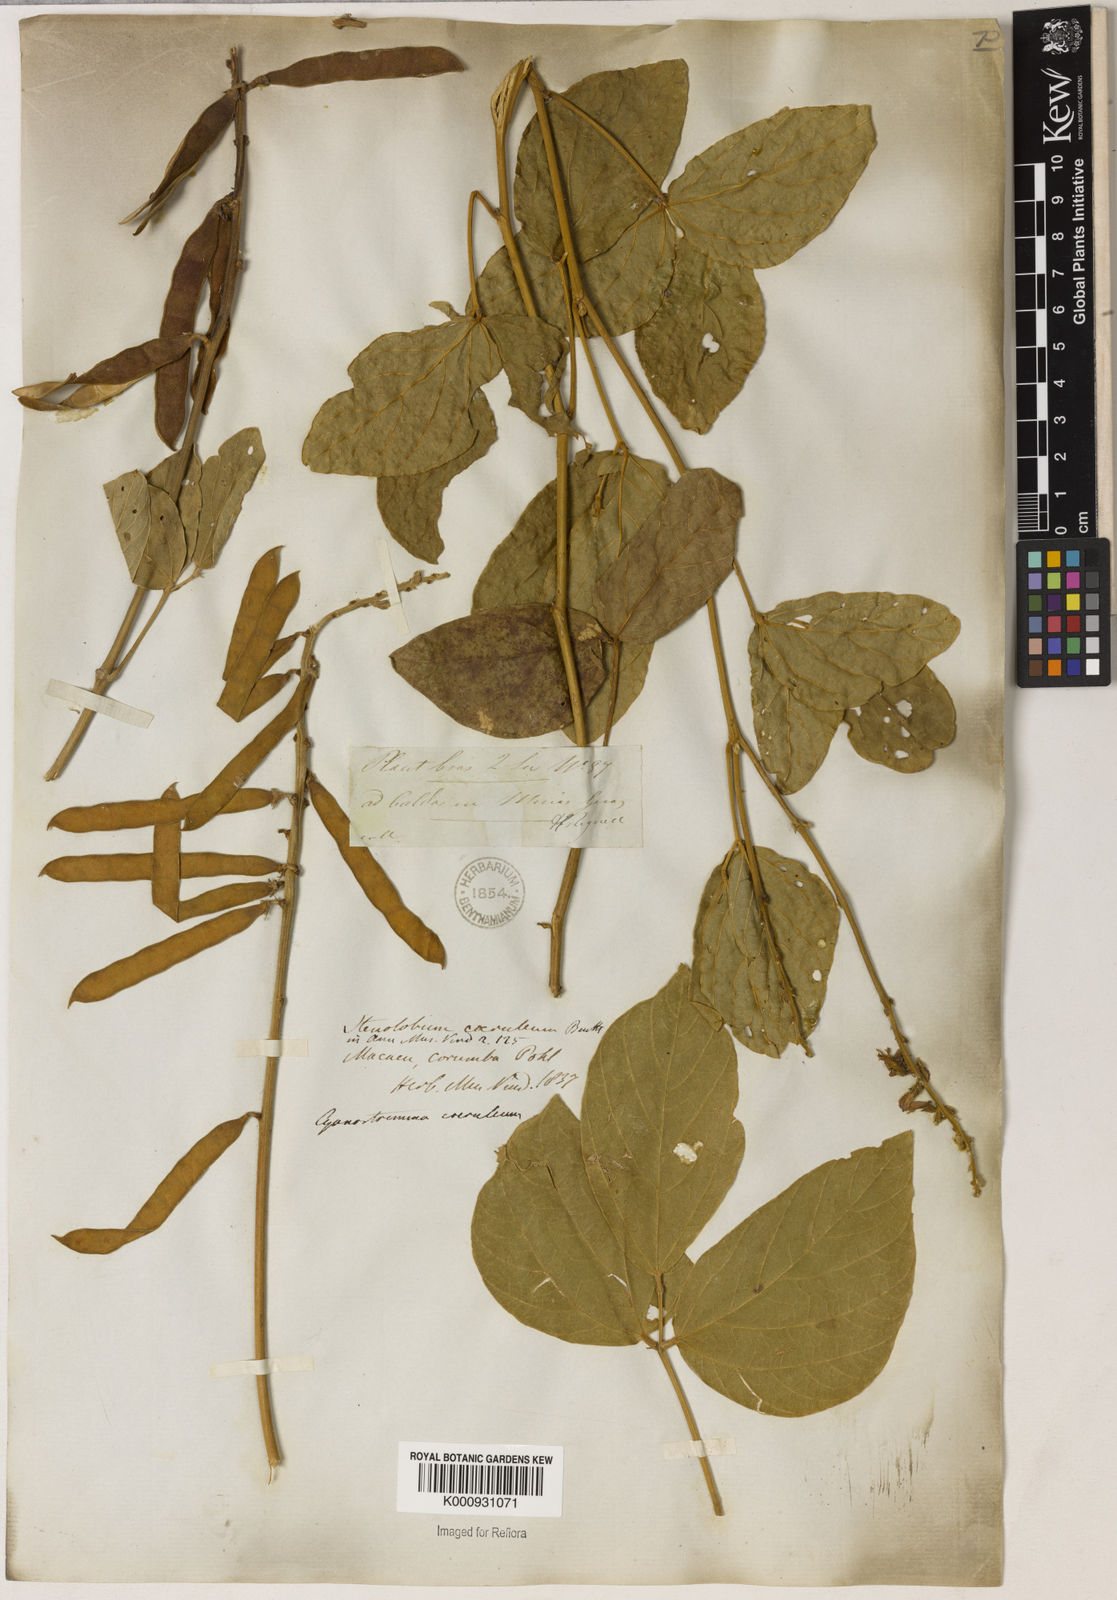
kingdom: Plantae
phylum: Tracheophyta
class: Magnoliopsida
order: Fabales
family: Fabaceae
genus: Calopogonium
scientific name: Calopogonium caeruleum
